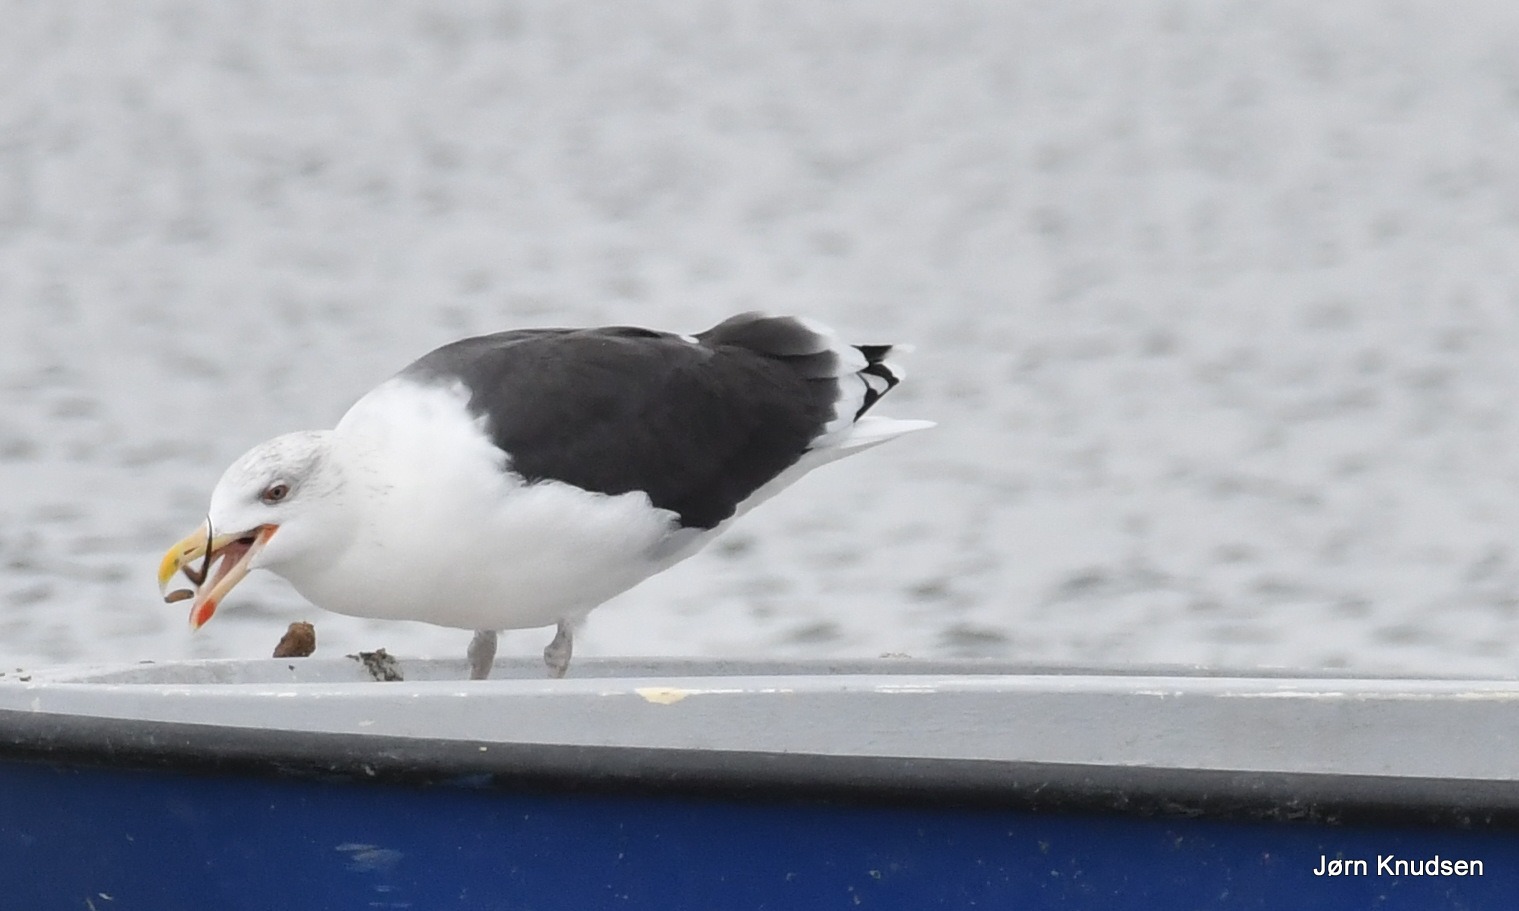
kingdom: Animalia
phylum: Chordata
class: Aves
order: Charadriiformes
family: Laridae
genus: Larus
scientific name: Larus marinus
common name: Svartbag
